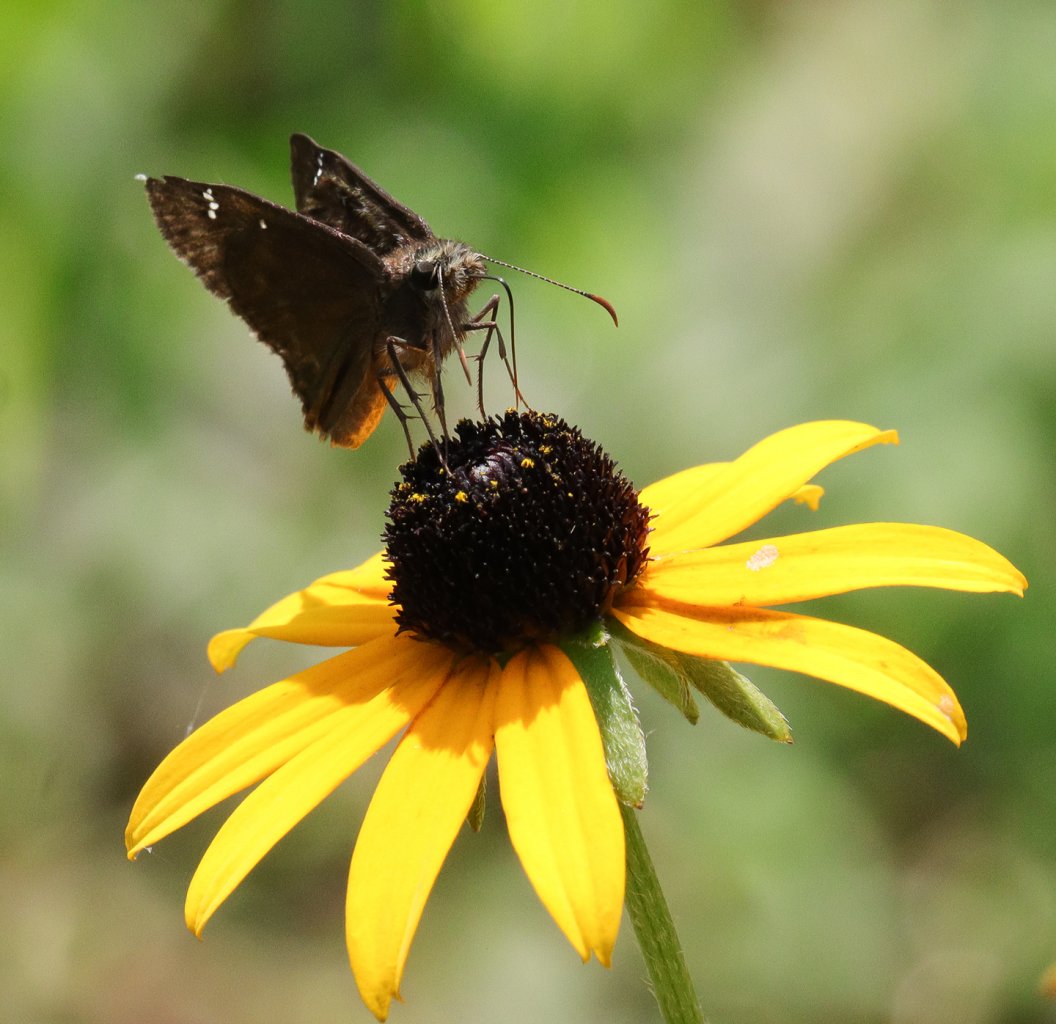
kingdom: Animalia
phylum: Arthropoda
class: Insecta
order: Lepidoptera
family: Hesperiidae
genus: Gesta
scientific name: Gesta
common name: Horace's Duskywing
